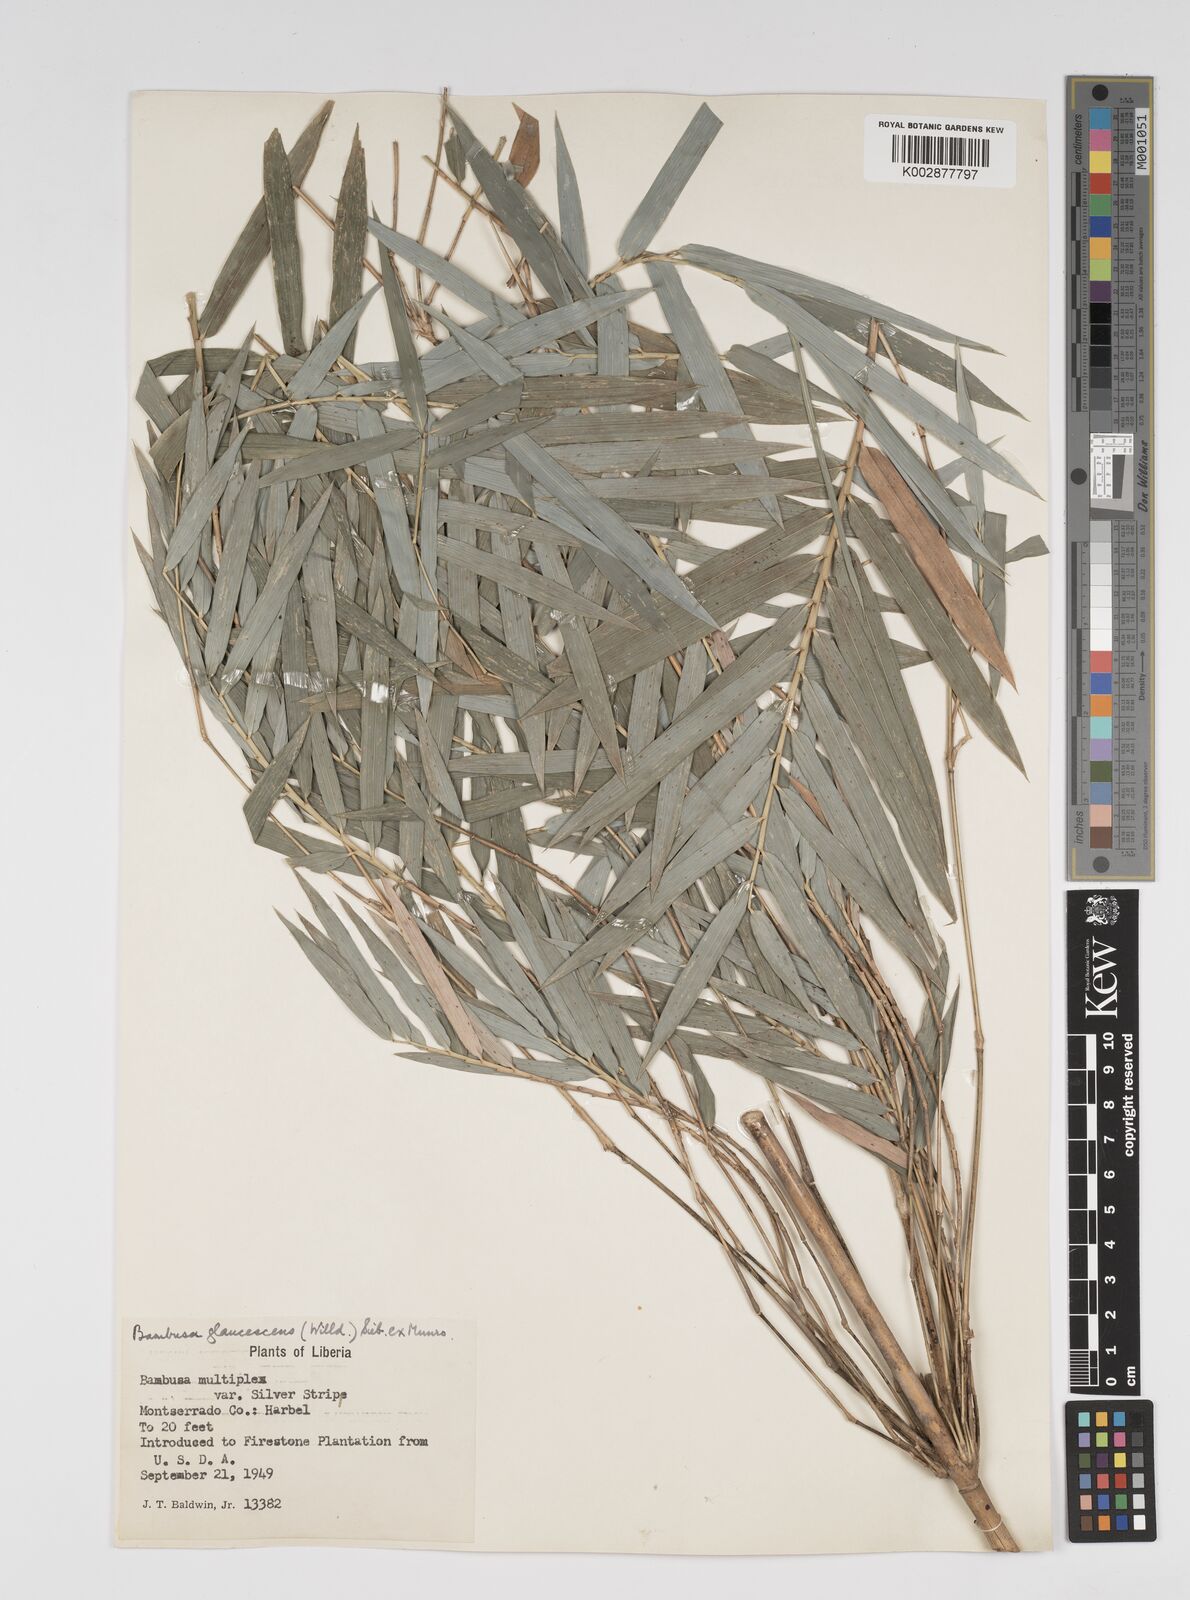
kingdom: Plantae
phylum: Tracheophyta
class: Liliopsida
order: Poales
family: Poaceae
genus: Bambusa
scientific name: Bambusa multiplex
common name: Hedge bamboo
